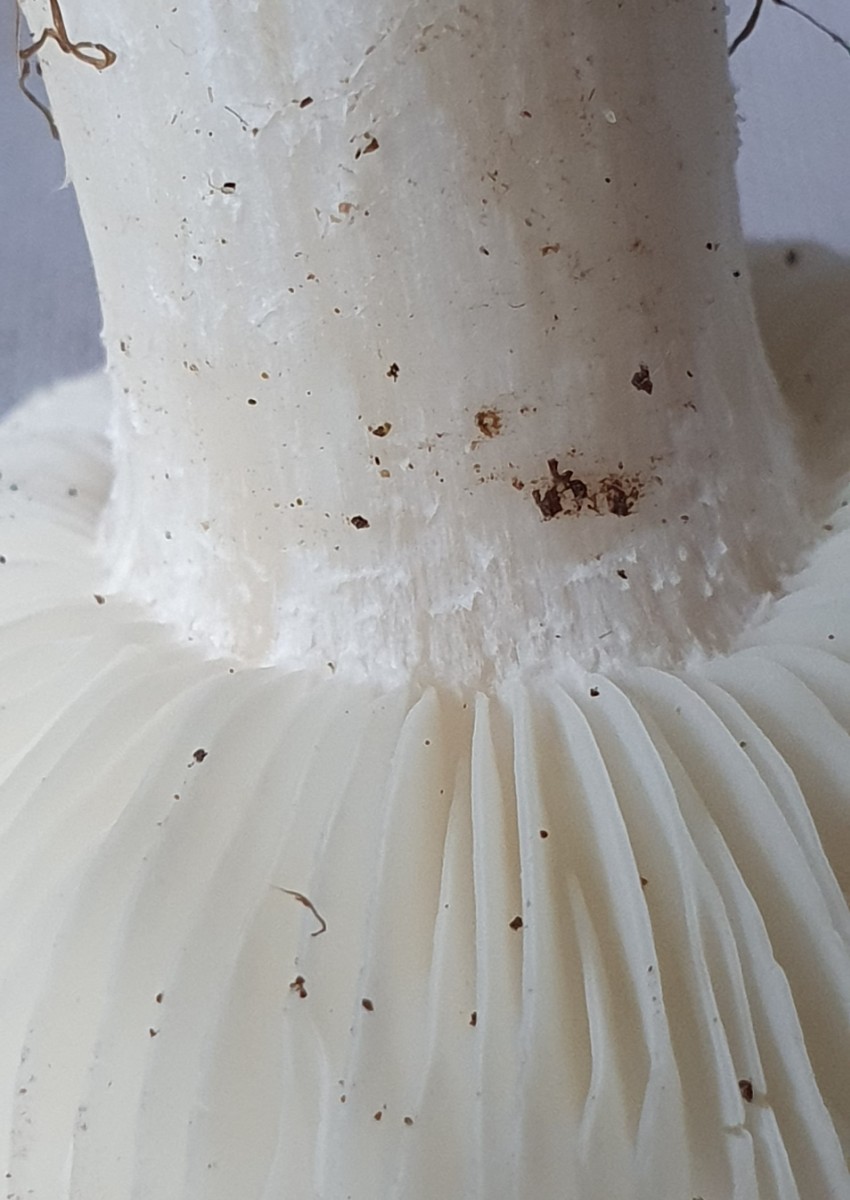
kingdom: Fungi
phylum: Basidiomycota
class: Agaricomycetes
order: Agaricales
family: Lyophyllaceae
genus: Tricholomella
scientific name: Tricholomella constricta
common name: ring-fagerhat
